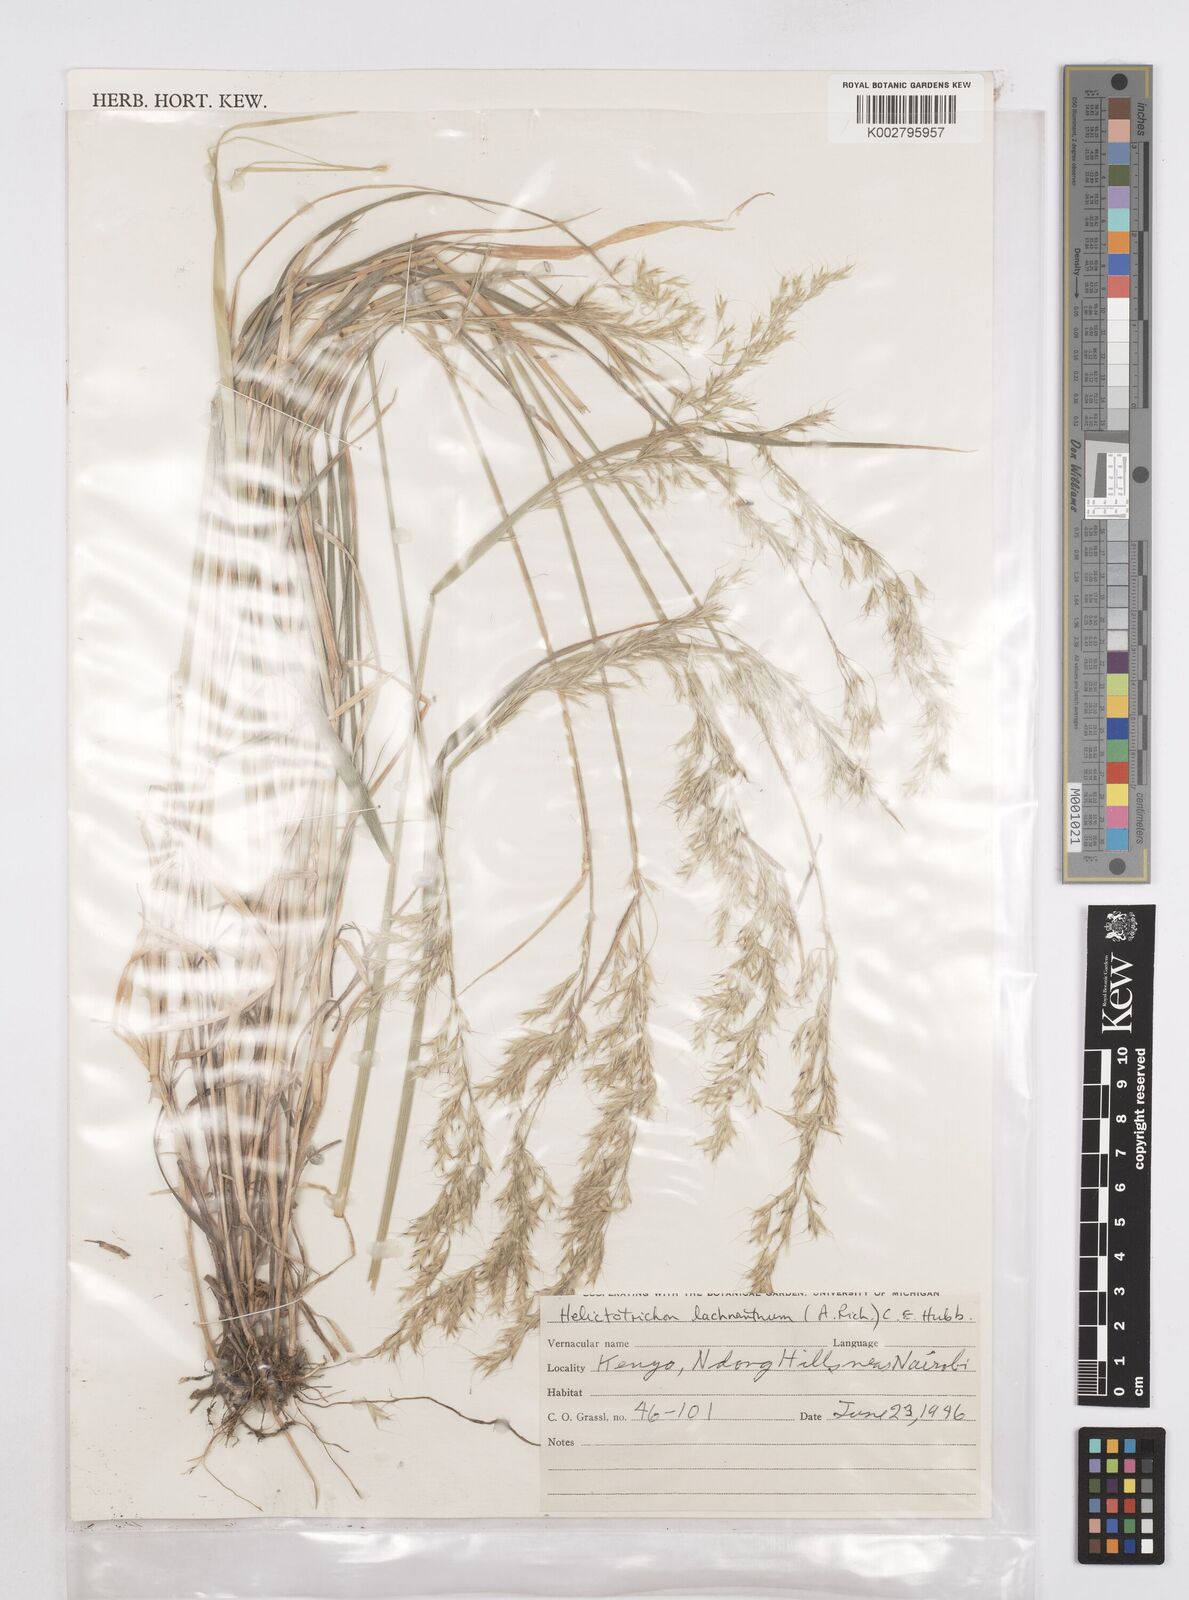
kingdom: Plantae
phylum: Tracheophyta
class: Liliopsida
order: Poales
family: Poaceae
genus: Trisetopsis
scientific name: Trisetopsis lachnantha
